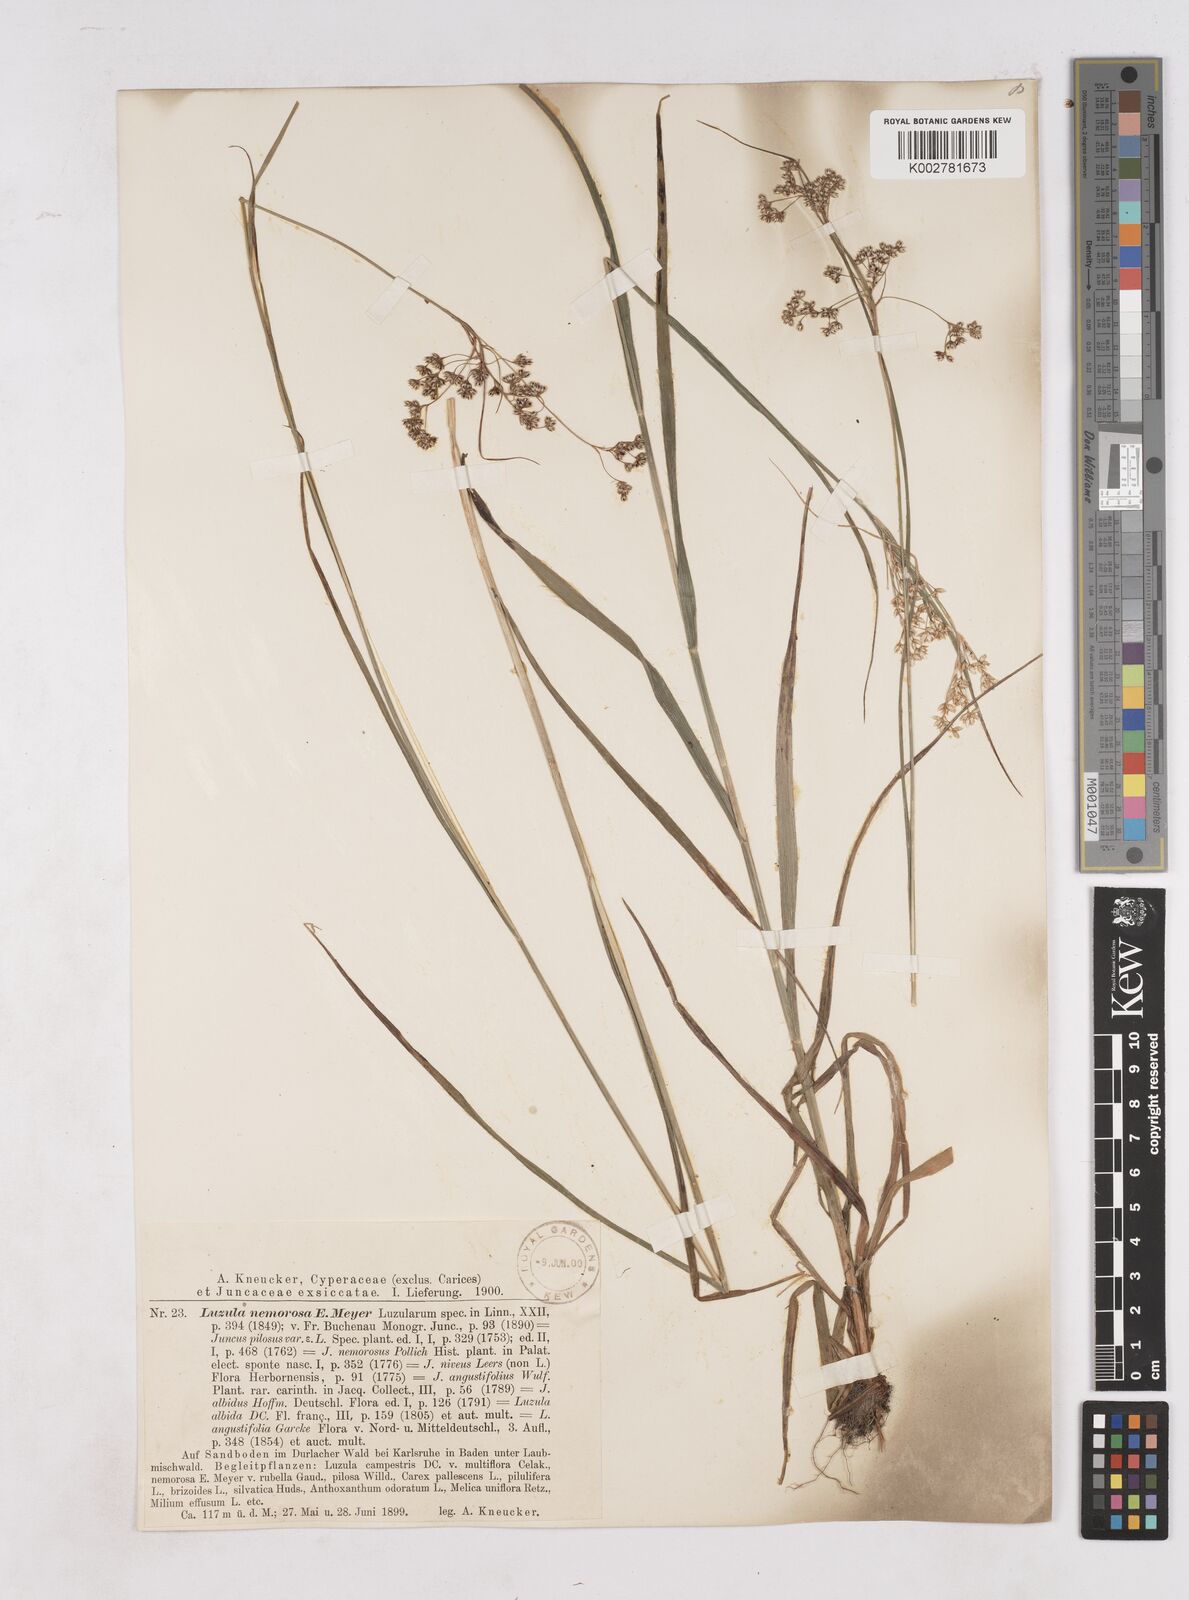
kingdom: Plantae
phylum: Tracheophyta
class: Liliopsida
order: Poales
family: Juncaceae
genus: Luzula
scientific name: Luzula luzuloides
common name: White wood-rush
